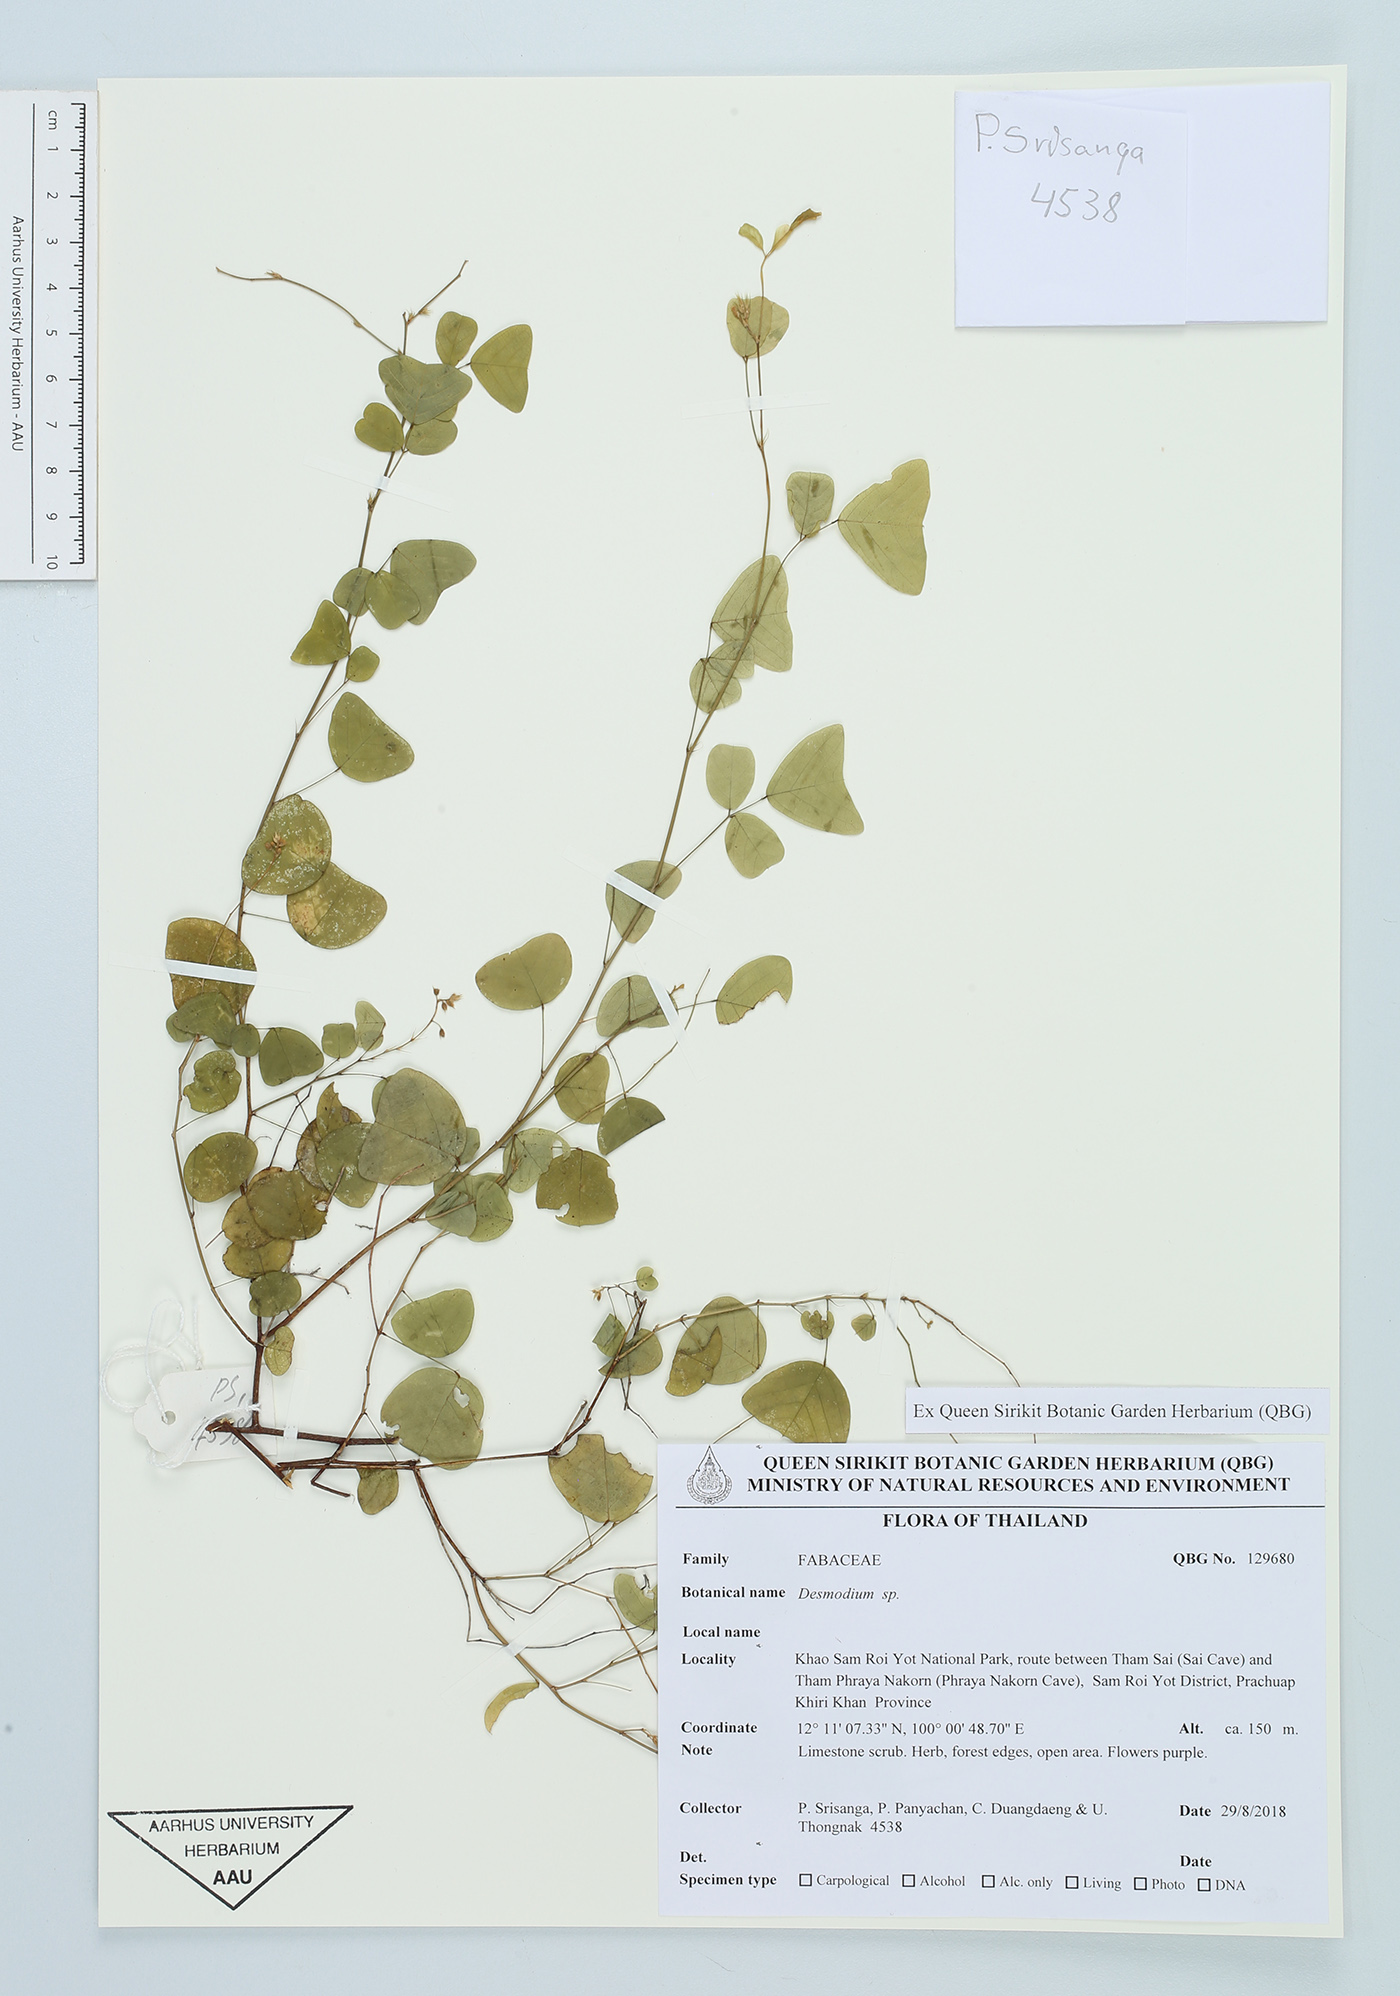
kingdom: Plantae
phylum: Tracheophyta
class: Magnoliopsida
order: Fabales
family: Fabaceae
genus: Desmodium
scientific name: Desmodium
